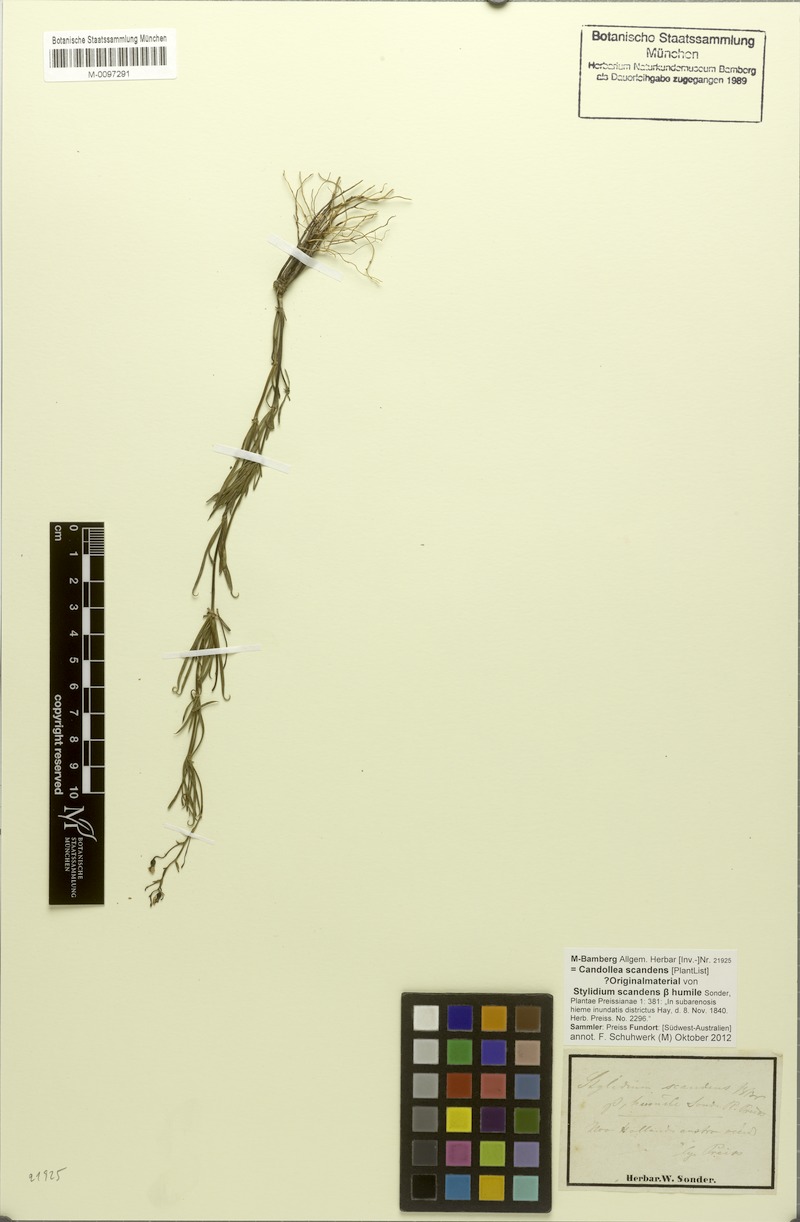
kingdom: Plantae
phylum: Tracheophyta
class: Magnoliopsida
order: Asterales
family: Stylidiaceae
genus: Stylidium
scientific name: Stylidium scandens
